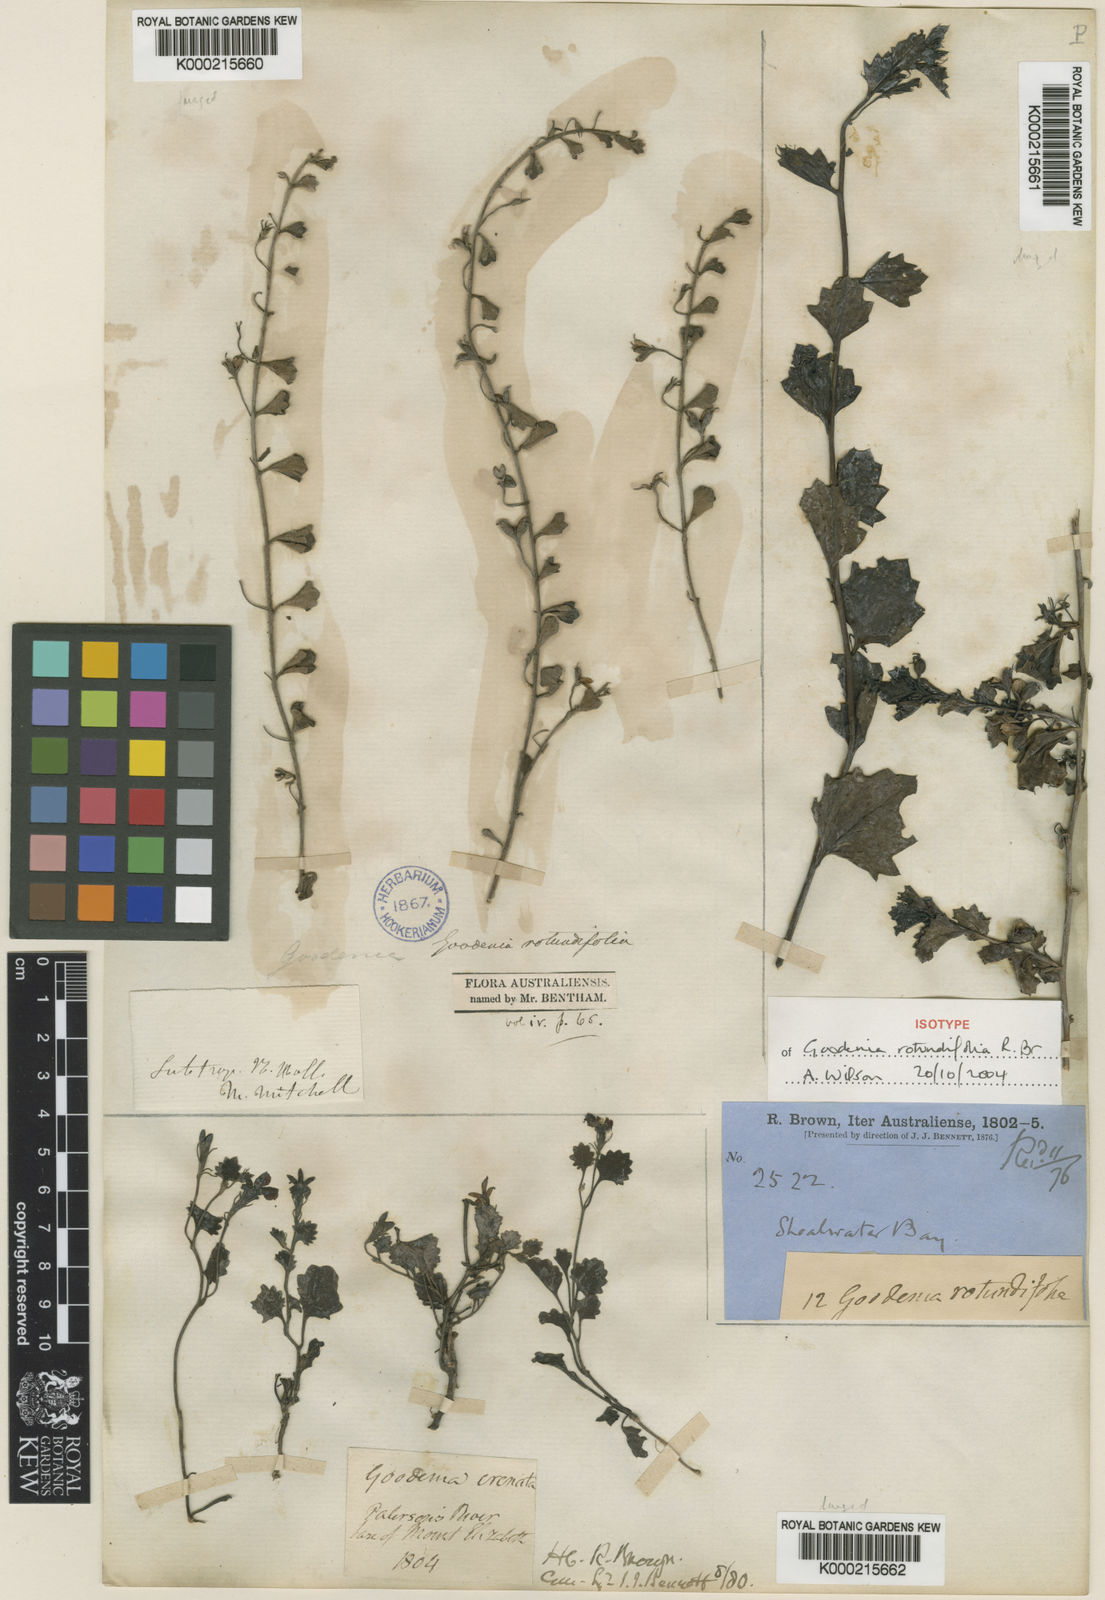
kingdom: Plantae
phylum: Tracheophyta
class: Magnoliopsida
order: Asterales
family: Goodeniaceae
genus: Goodenia
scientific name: Goodenia rotundifolia
